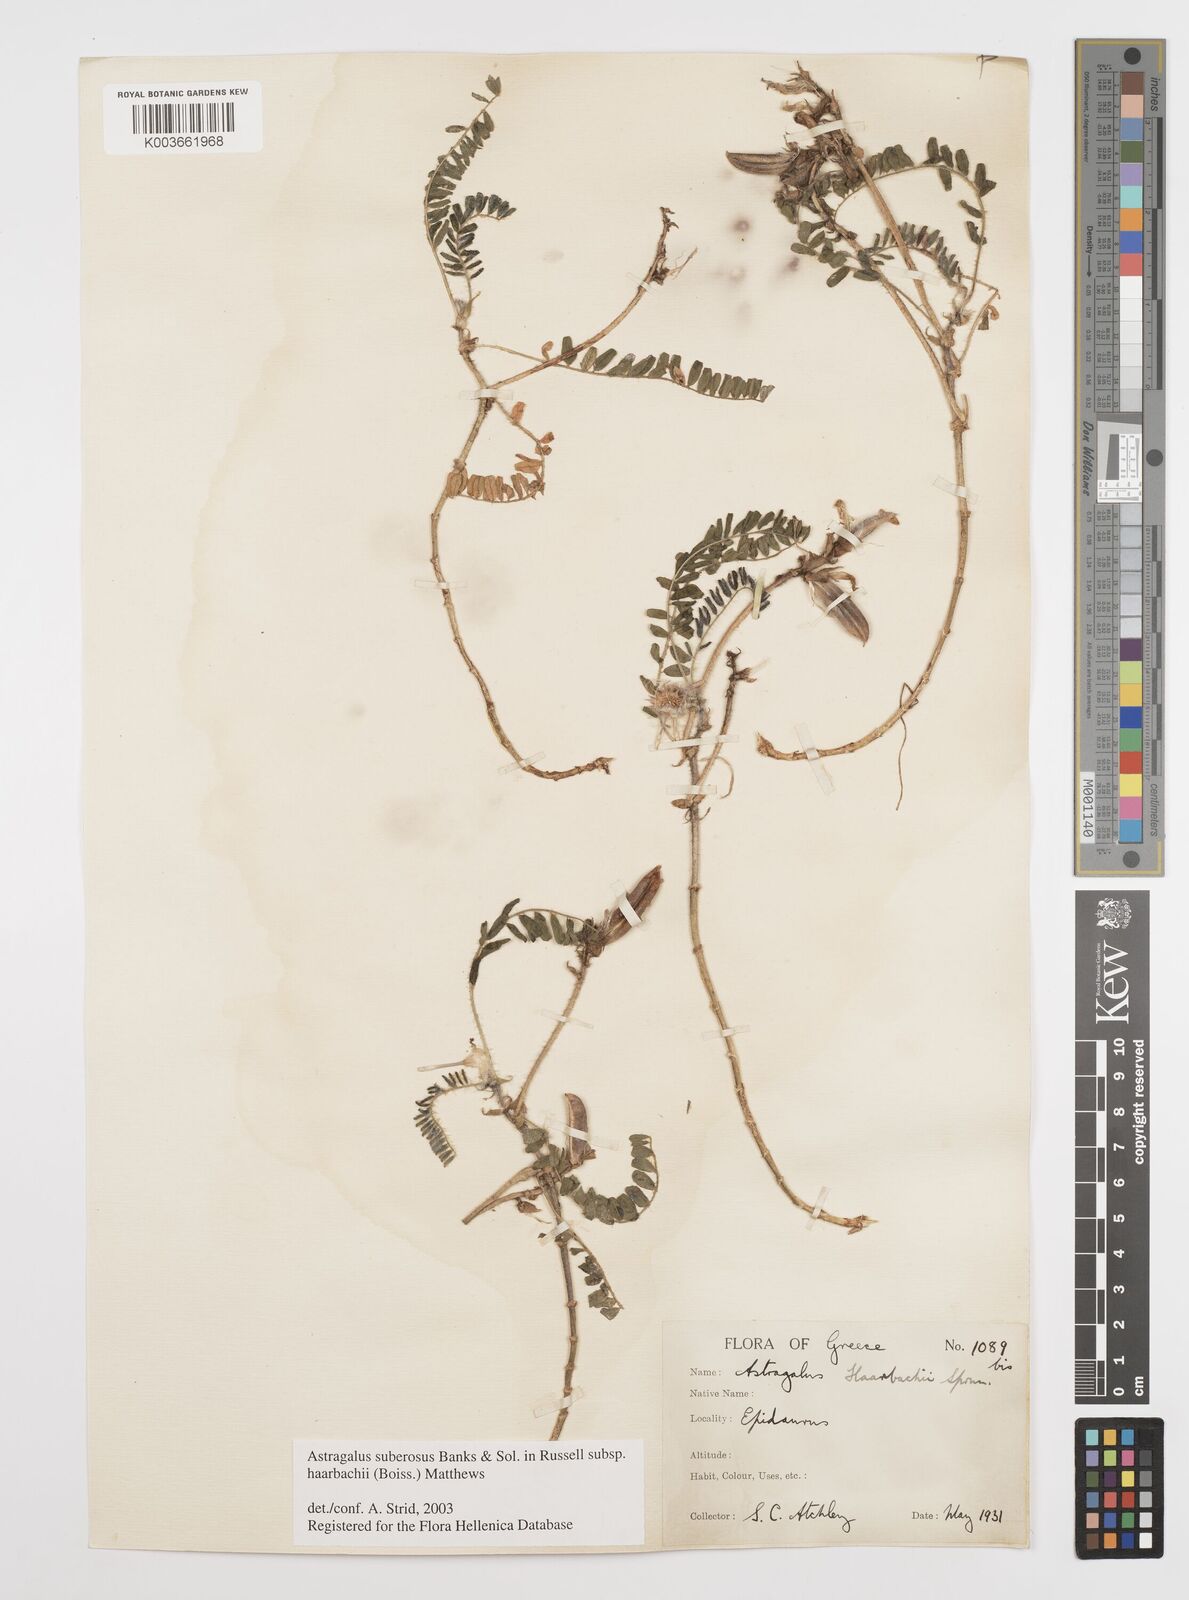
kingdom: Plantae
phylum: Tracheophyta
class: Magnoliopsida
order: Fabales
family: Fabaceae
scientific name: Fabaceae
